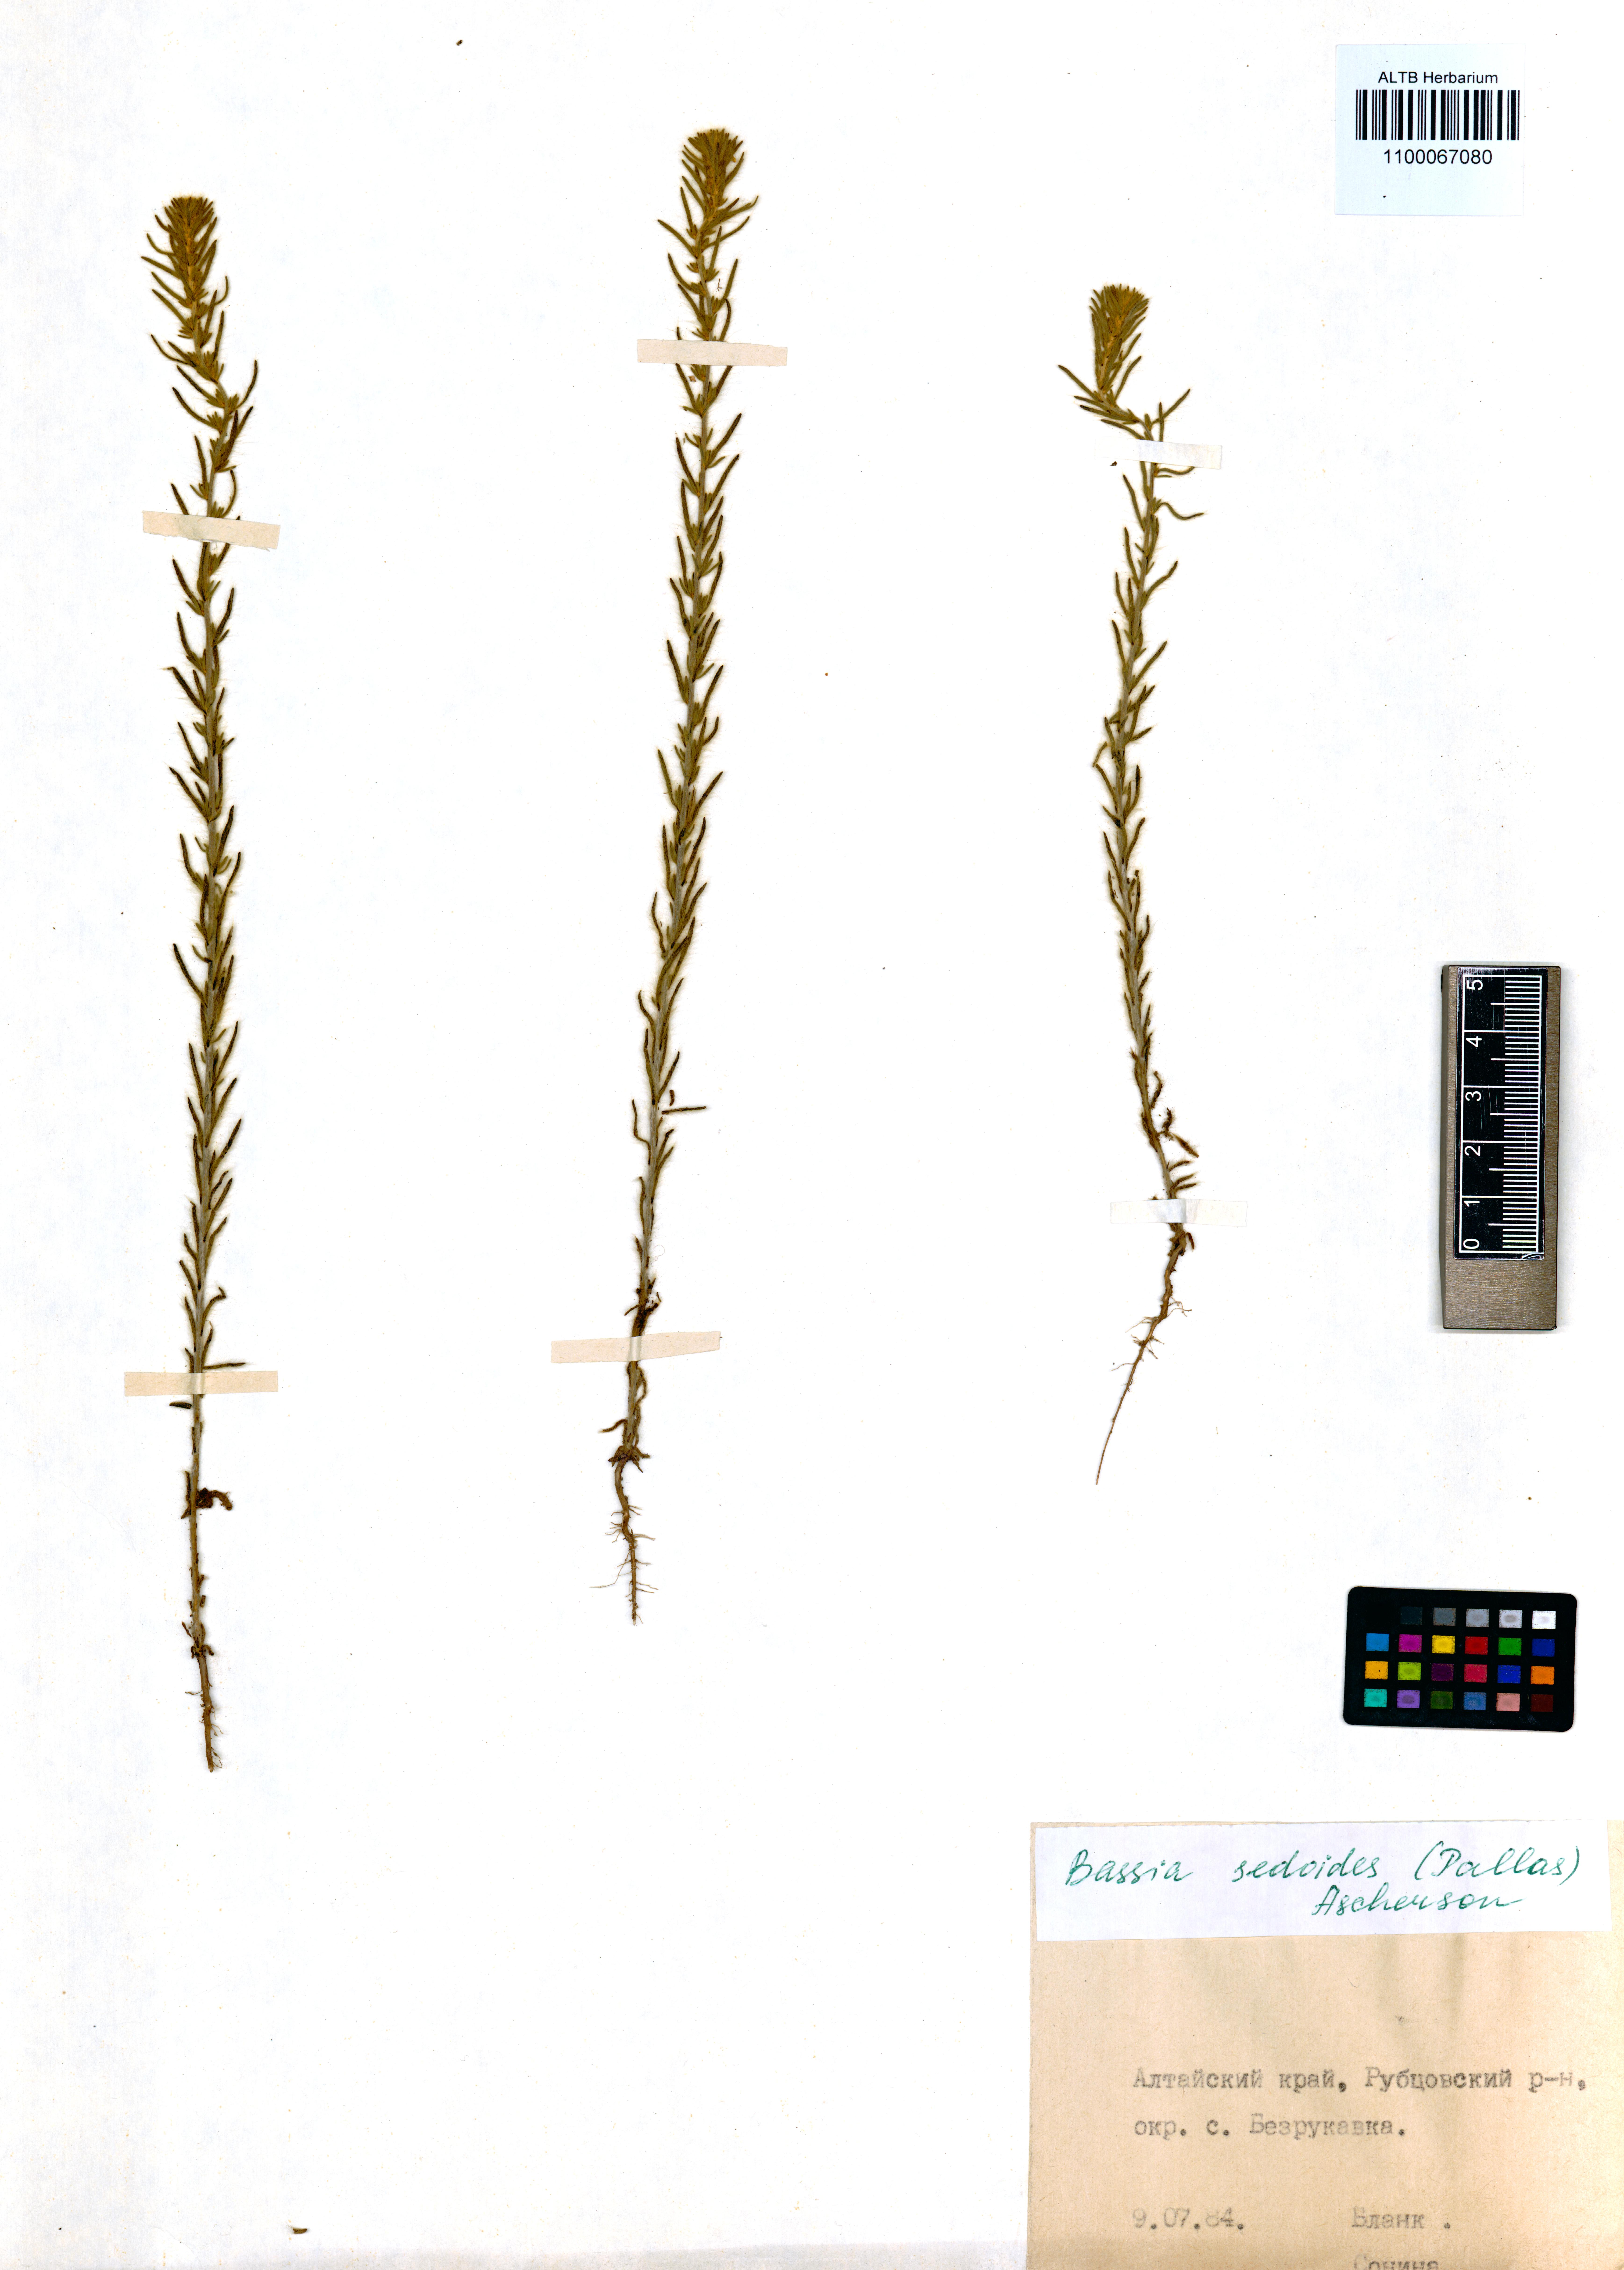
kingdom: Plantae
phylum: Tracheophyta
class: Magnoliopsida
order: Caryophyllales
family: Amaranthaceae
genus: Sedobassia
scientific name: Sedobassia sedoides
